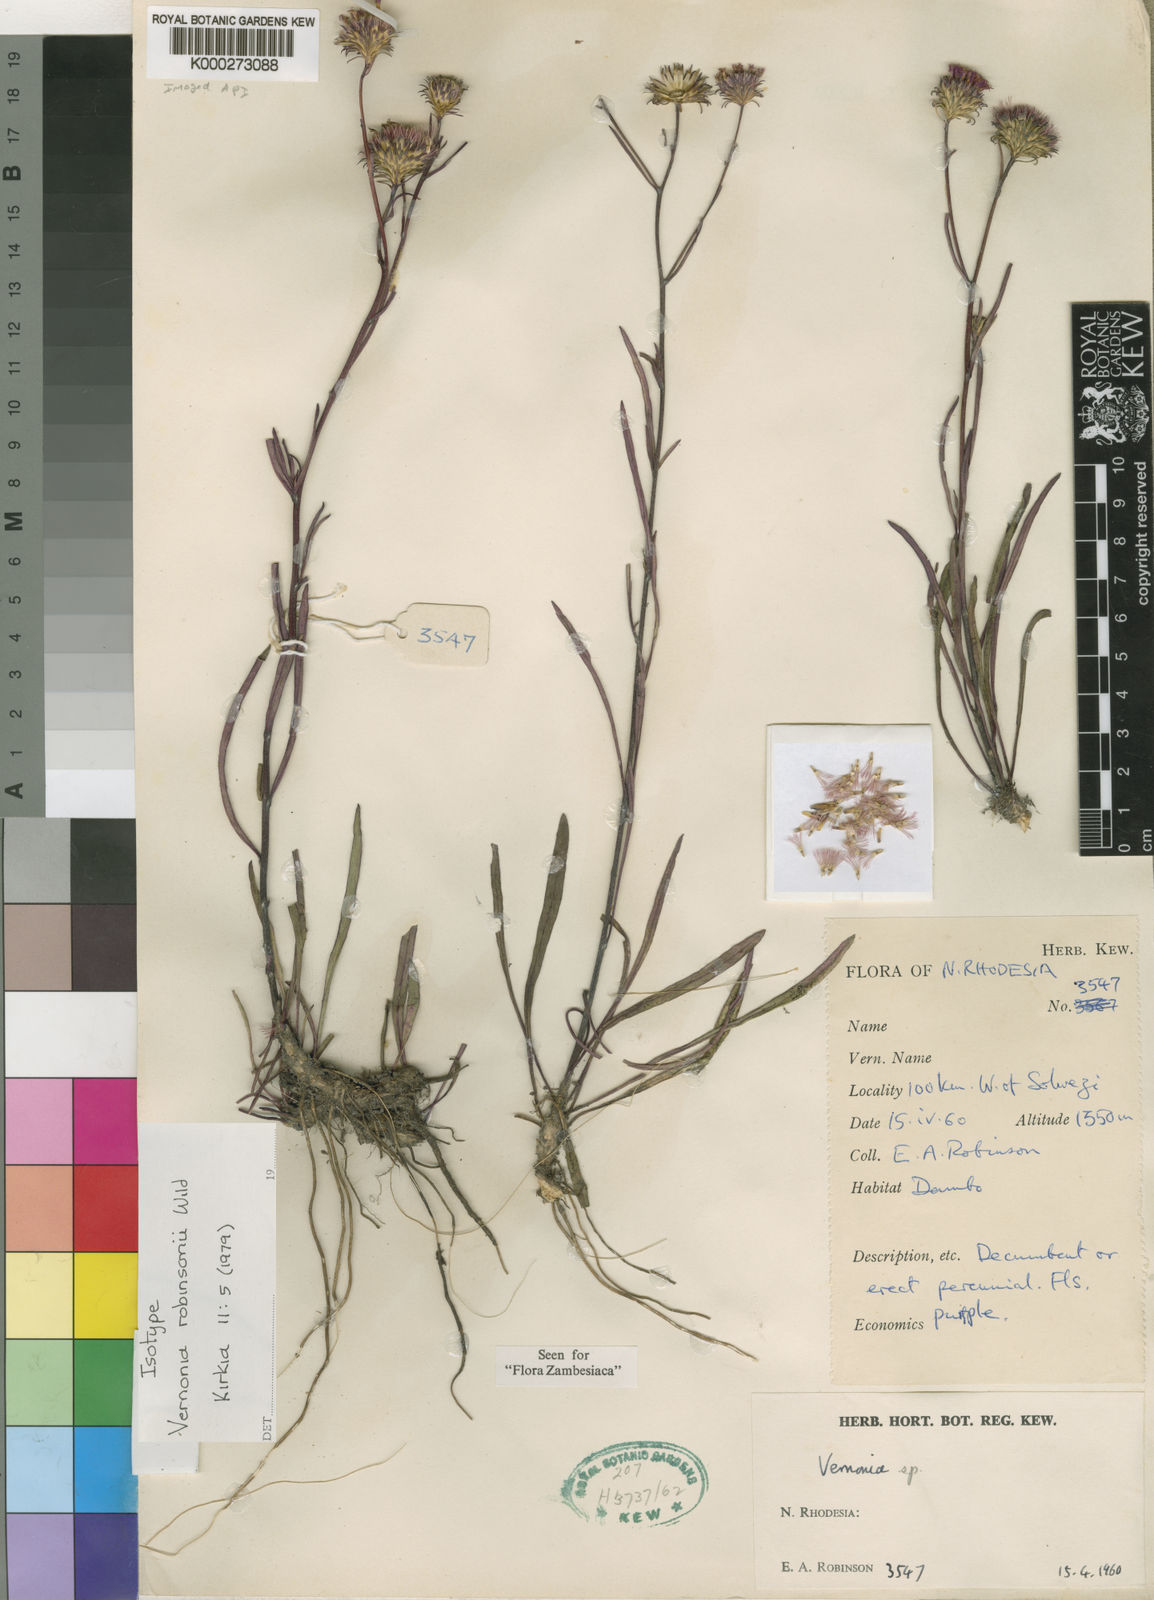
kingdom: Plantae
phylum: Tracheophyta
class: Magnoliopsida
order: Asterales
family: Asteraceae
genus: Vernonia
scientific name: Vernonia robinsonii
